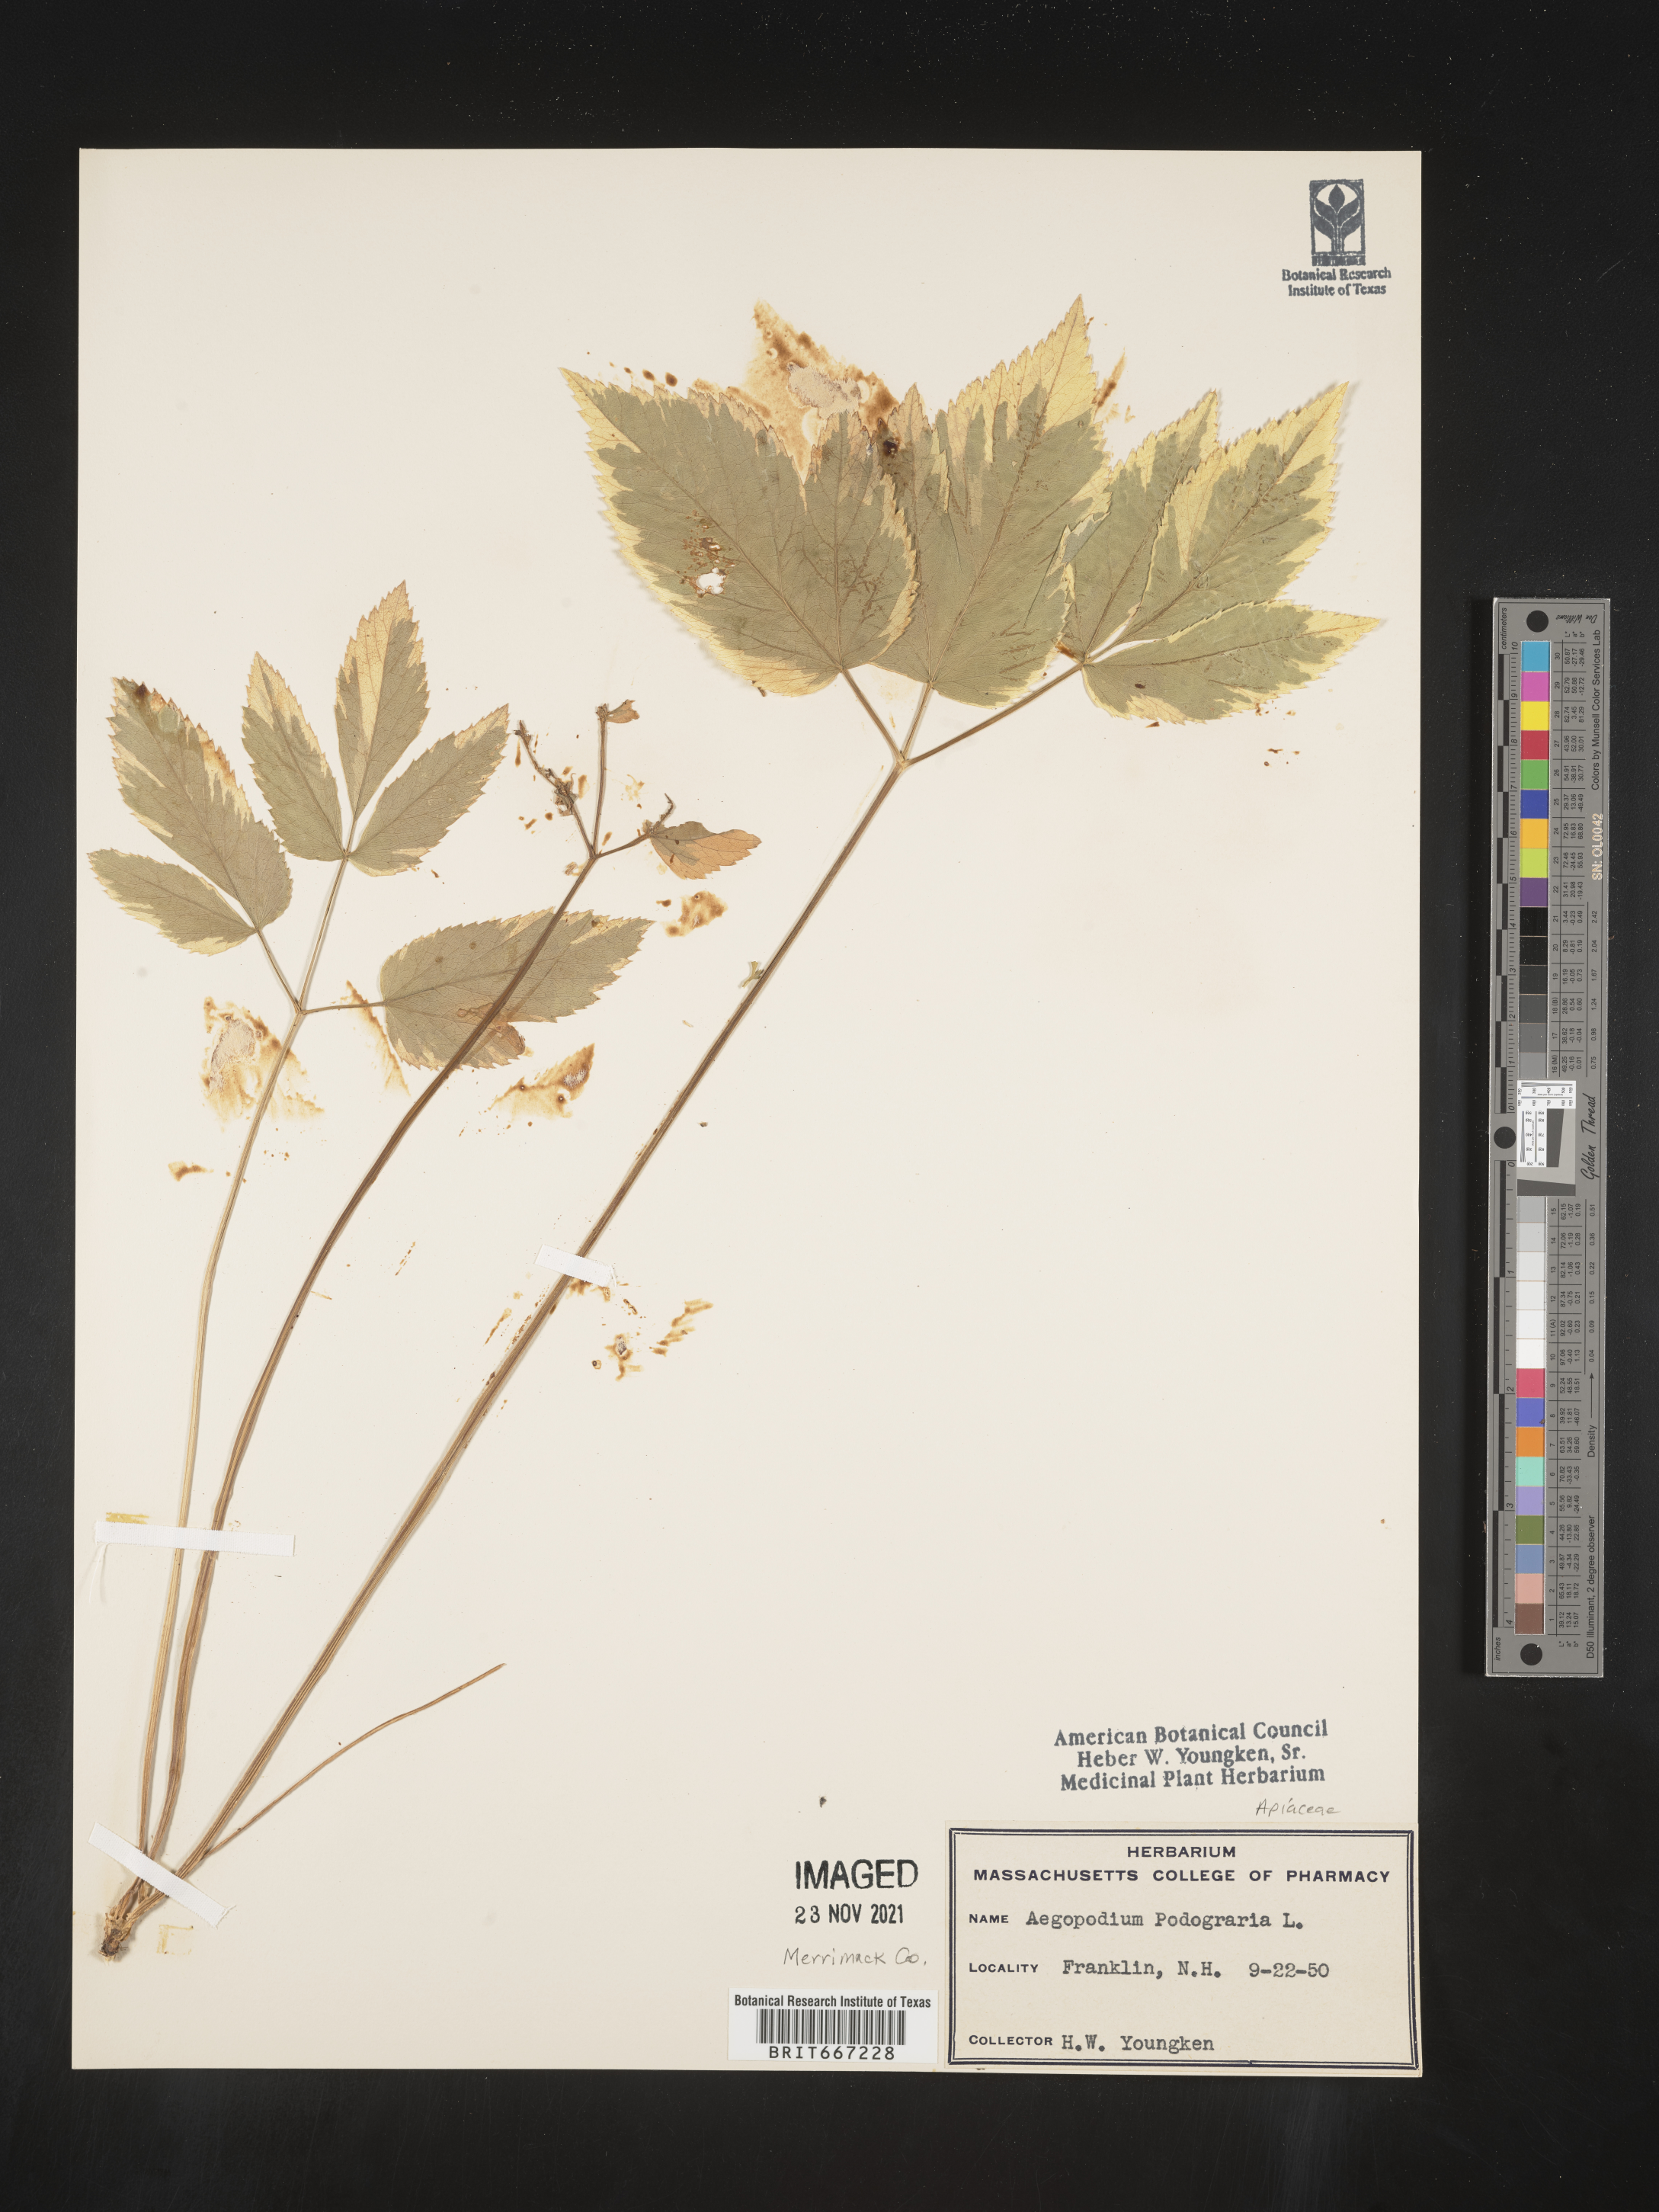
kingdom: Plantae
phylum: Tracheophyta
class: Magnoliopsida
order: Apiales
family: Apiaceae
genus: Aegopodium
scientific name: Aegopodium podagraria
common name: Ground-elder
